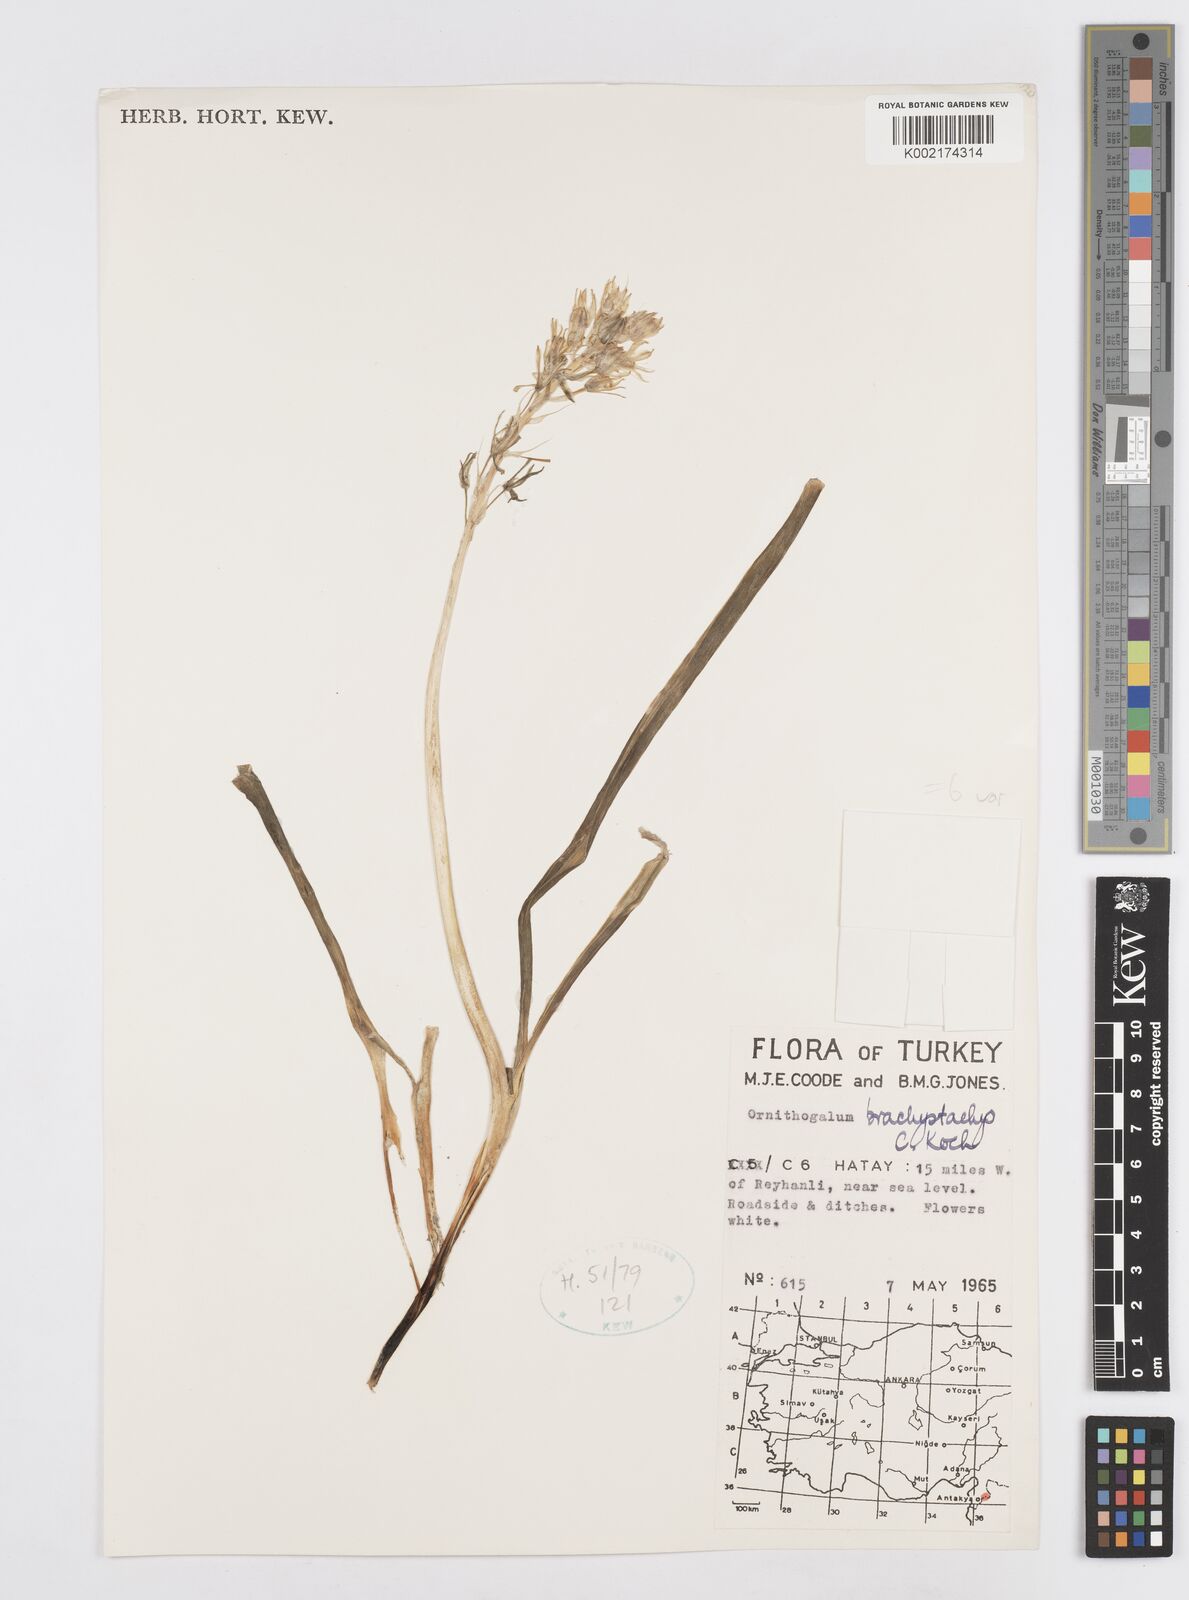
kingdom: Plantae
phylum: Tracheophyta
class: Liliopsida
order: Asparagales
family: Asparagaceae
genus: Ornithogalum
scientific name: Ornithogalum narbonense
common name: Bath-asparagus
